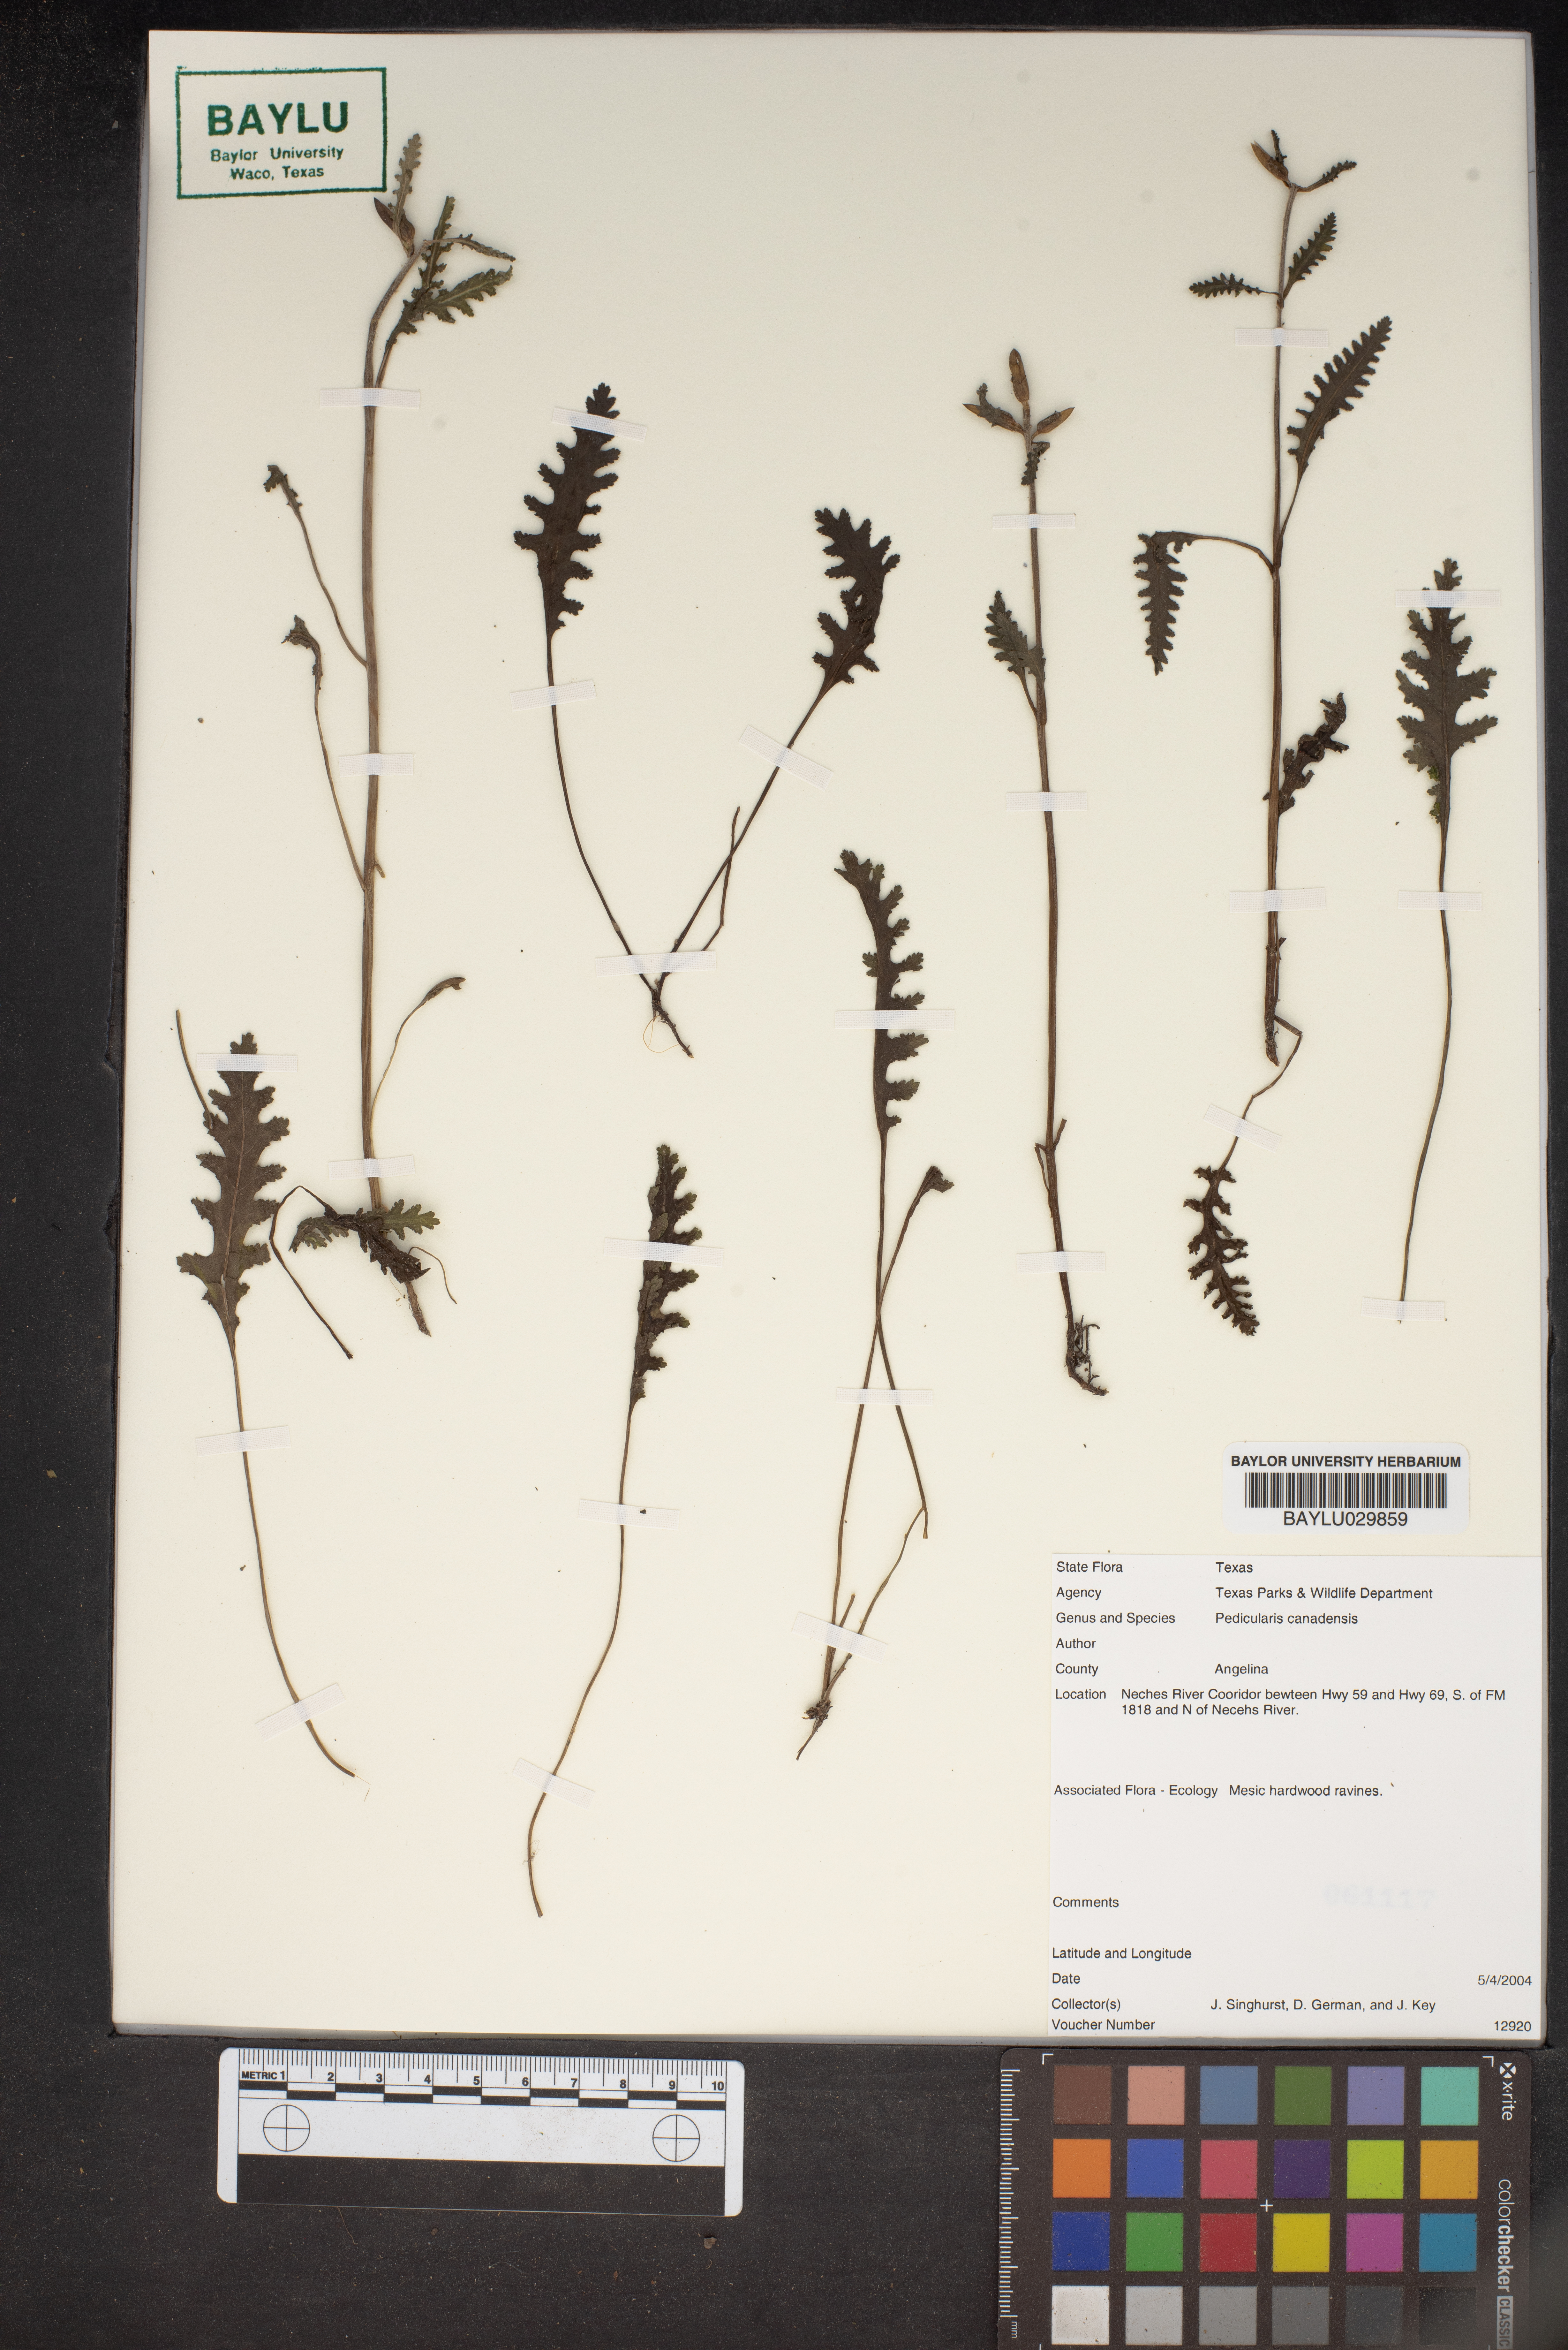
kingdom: Plantae
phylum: Tracheophyta
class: Magnoliopsida
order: Lamiales
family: Orobanchaceae
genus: Pedicularis
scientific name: Pedicularis canadensis
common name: Early lousewort
